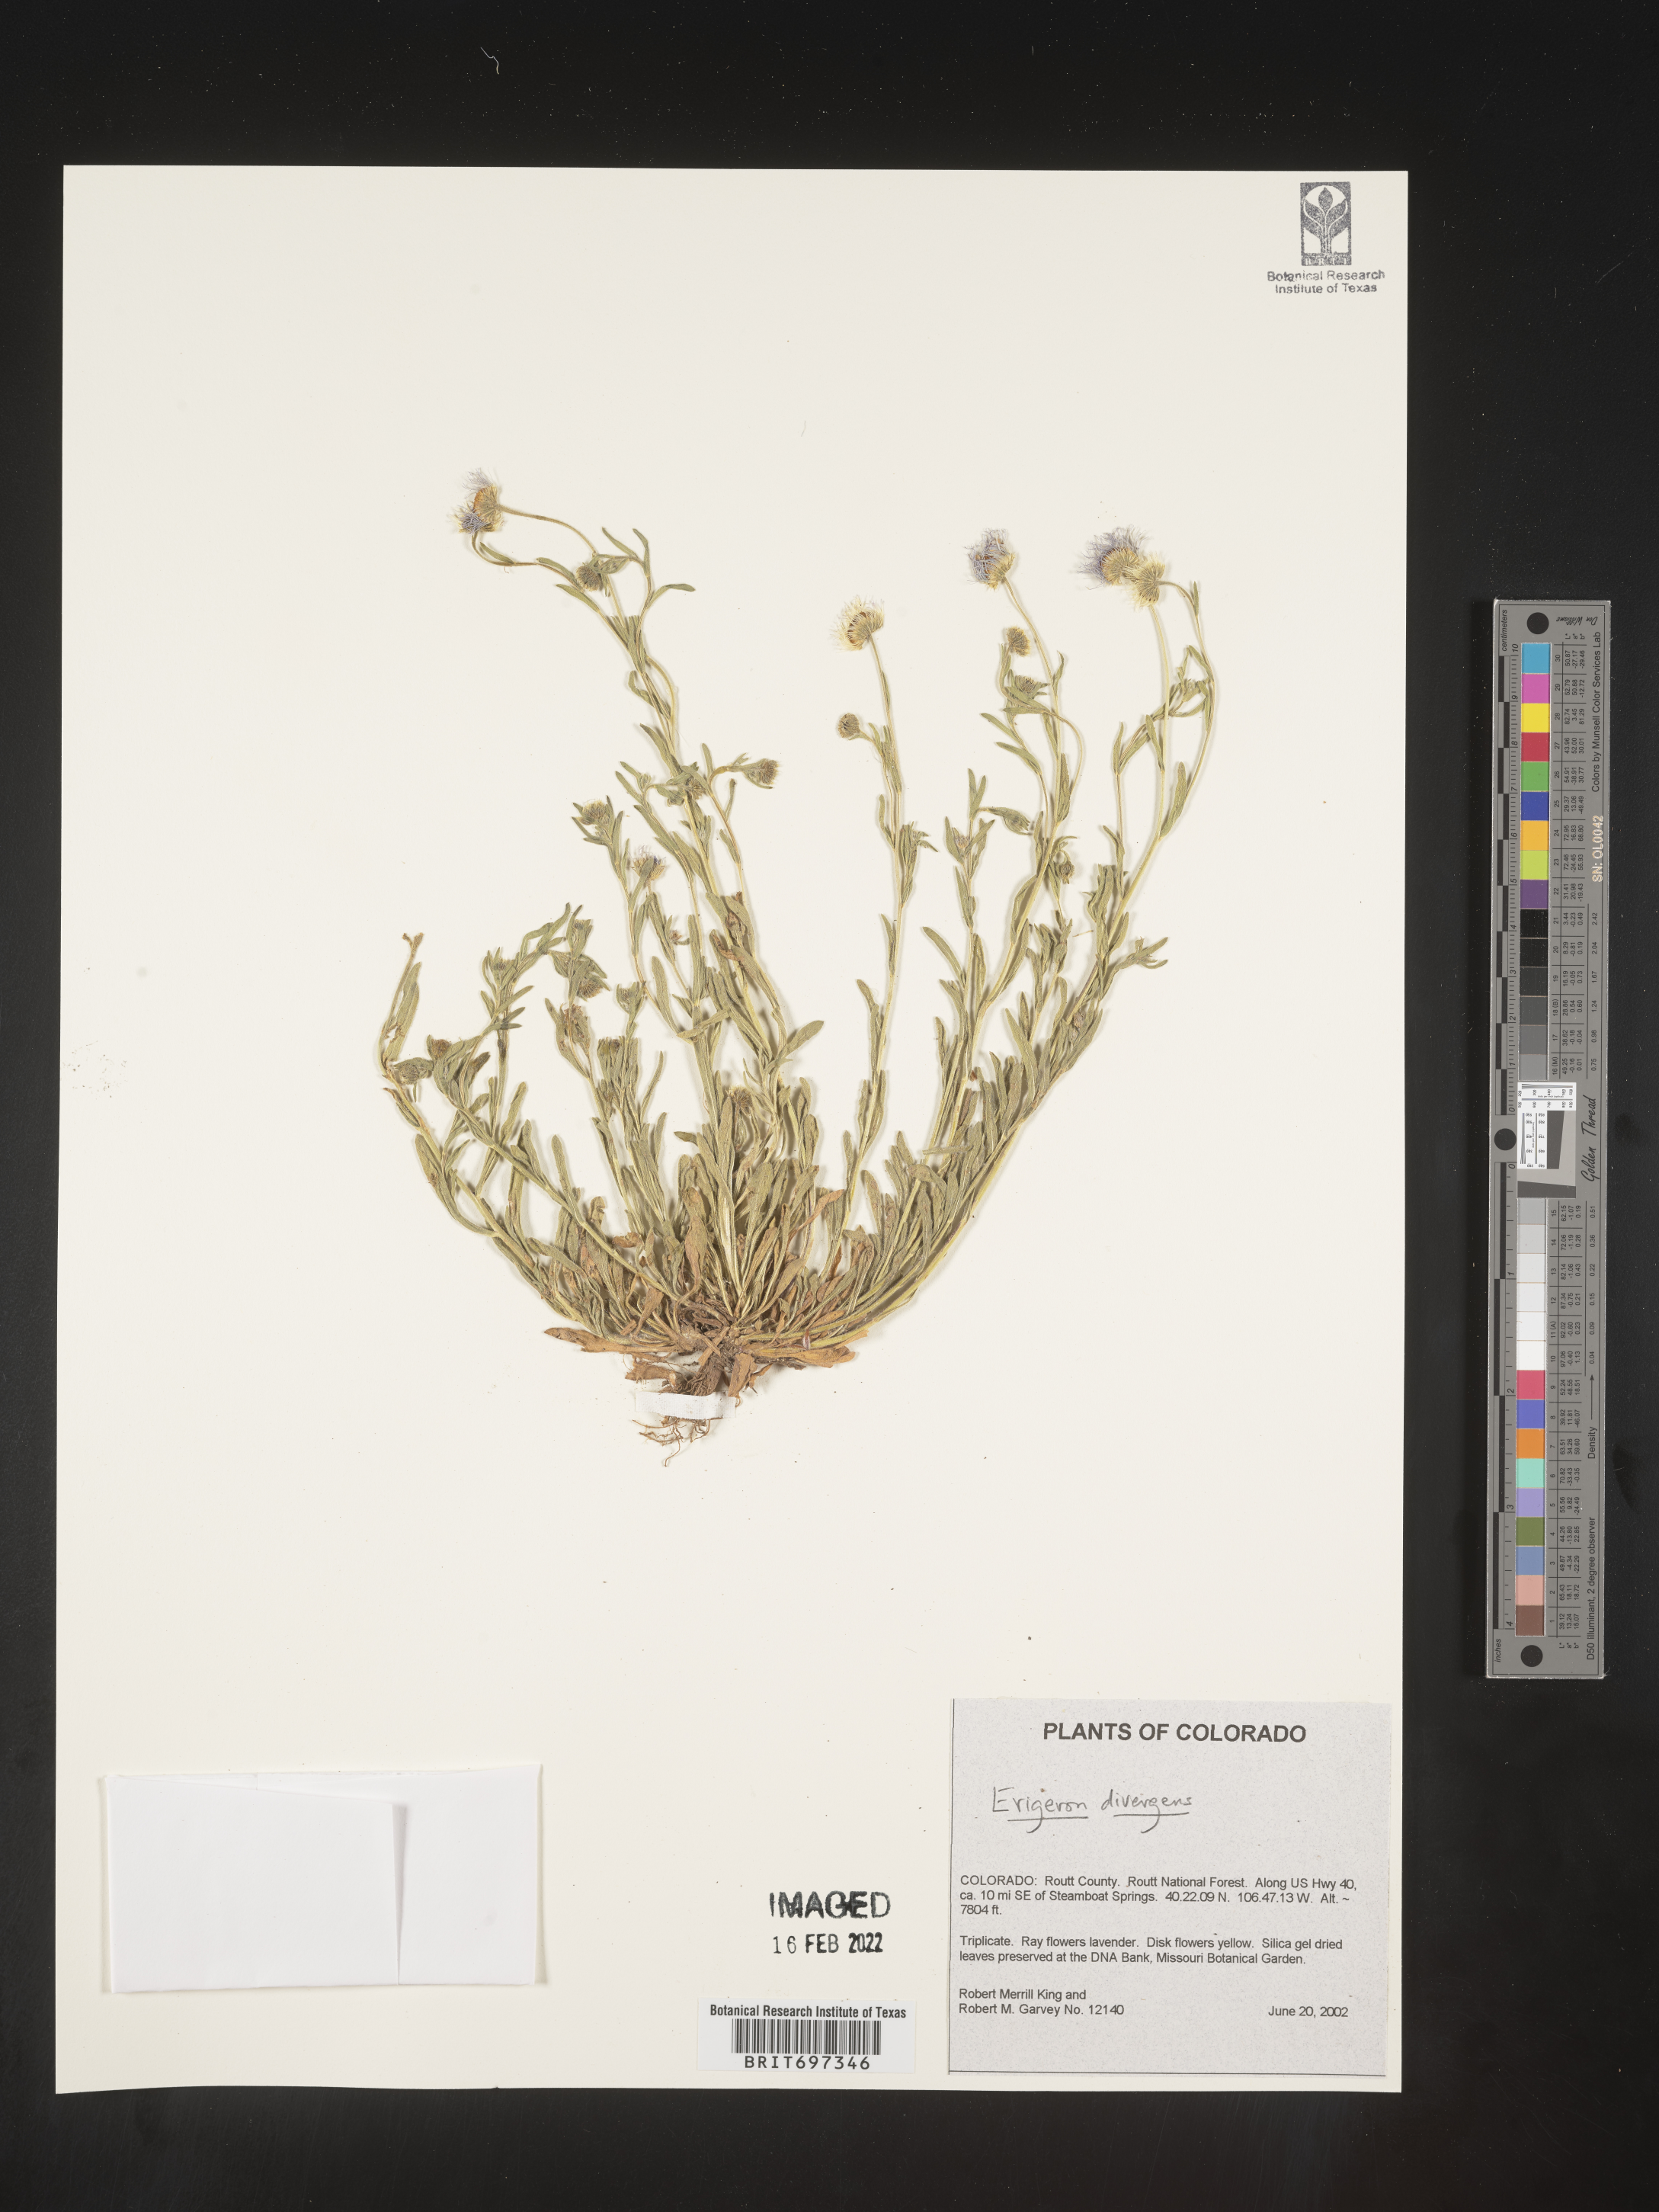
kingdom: Plantae
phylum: Tracheophyta
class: Magnoliopsida
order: Asterales
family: Asteraceae
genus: Erigeron
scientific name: Erigeron divergens
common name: Diffuse fleabane
